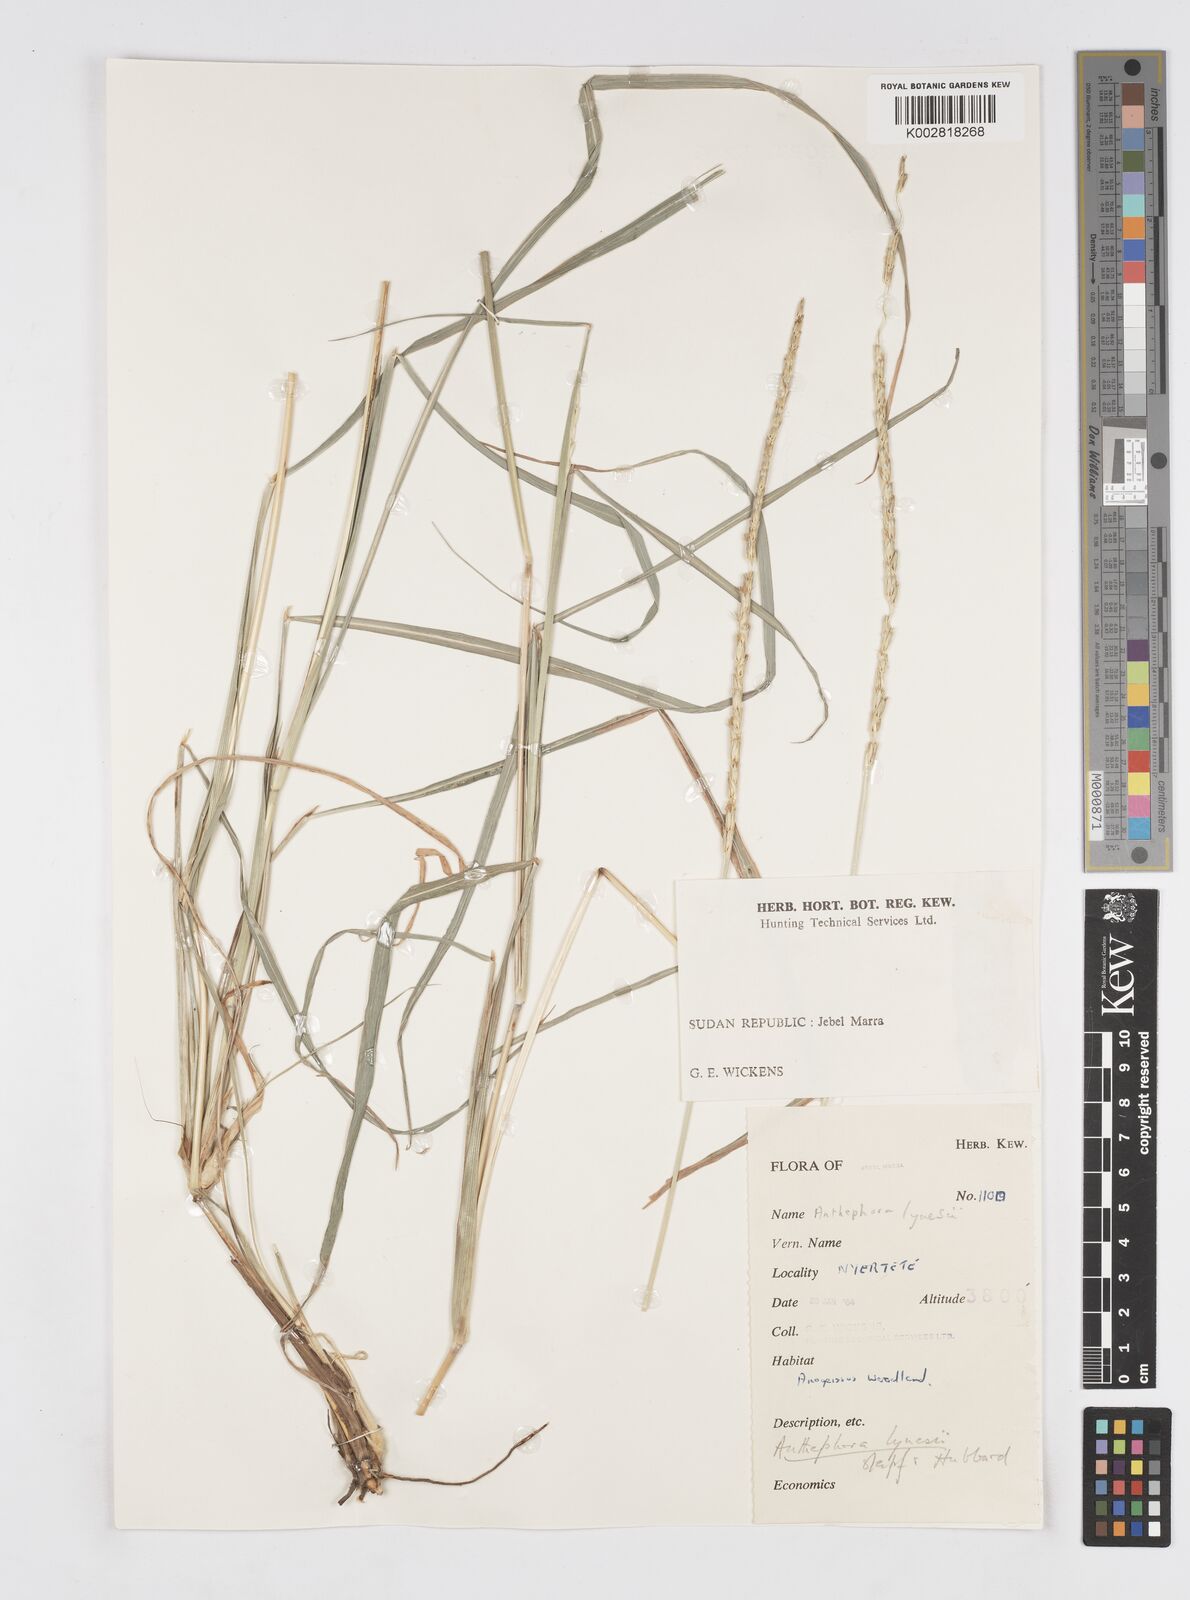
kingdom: Plantae
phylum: Tracheophyta
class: Liliopsida
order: Poales
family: Poaceae
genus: Anthephora
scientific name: Anthephora nigritana
